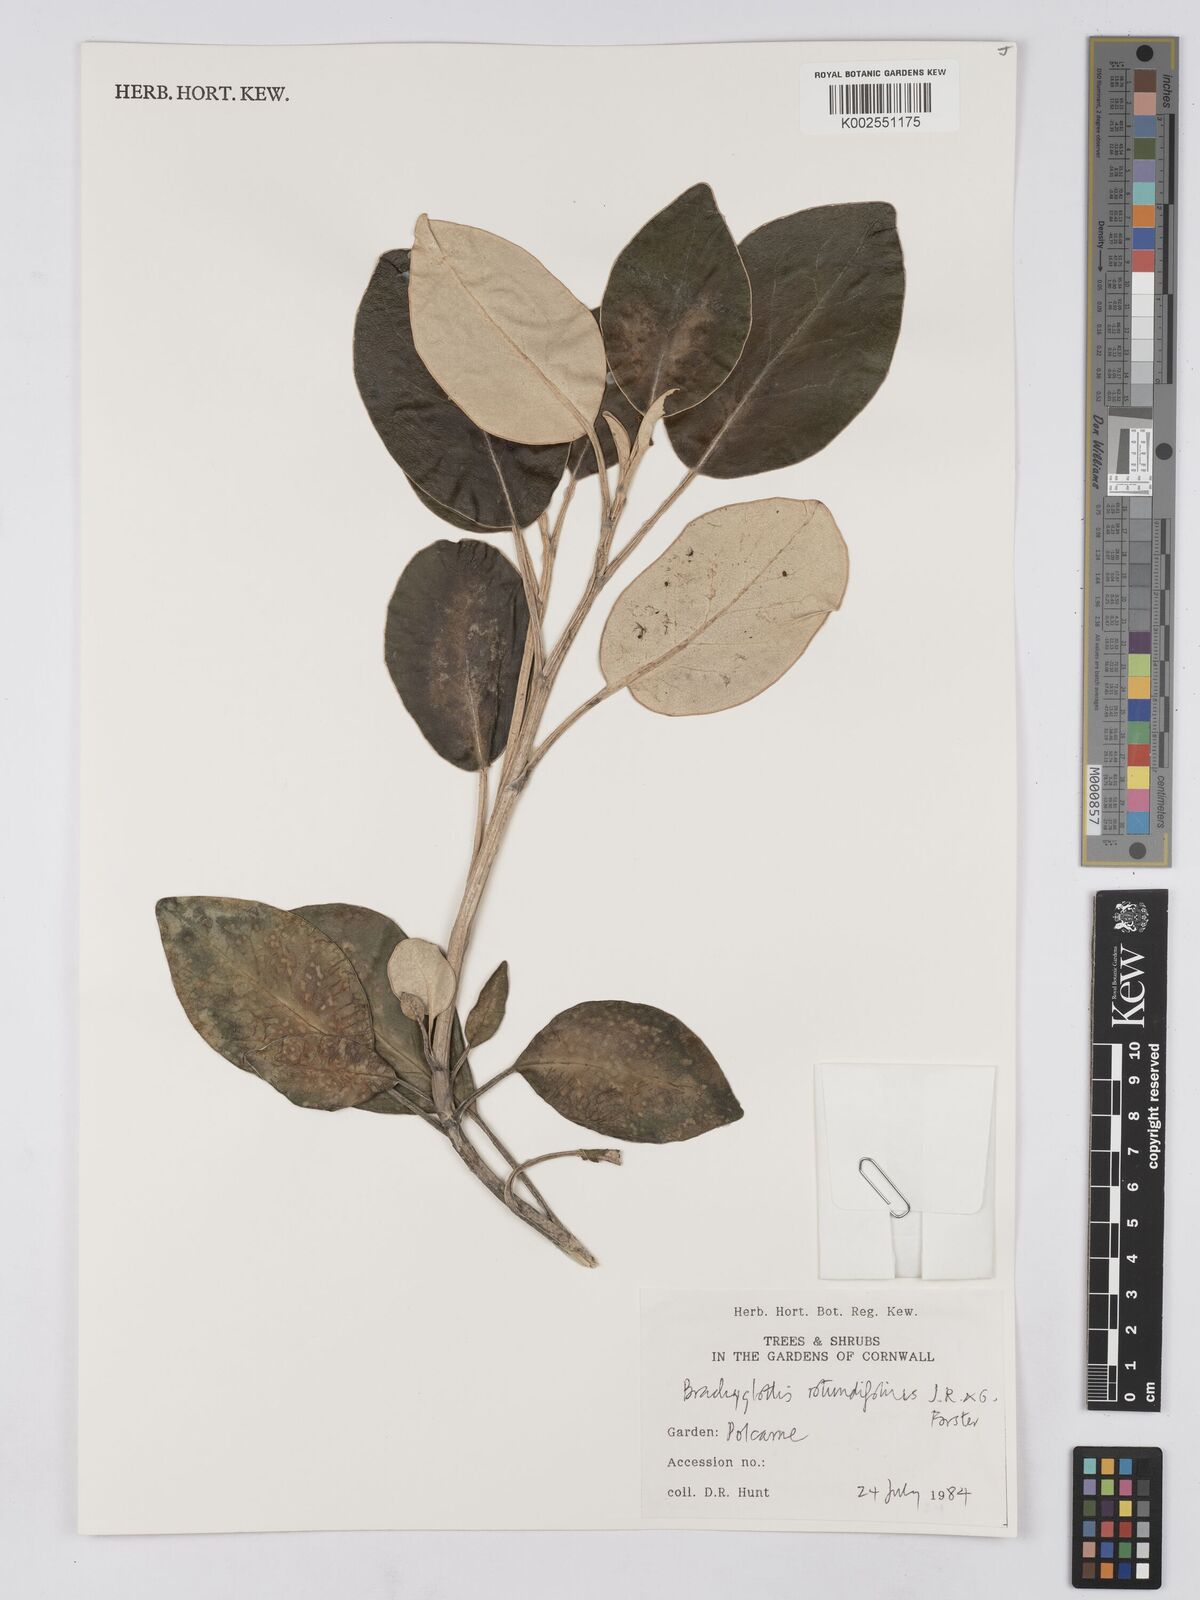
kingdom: Plantae
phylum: Tracheophyta
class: Magnoliopsida
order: Asterales
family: Asteraceae
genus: Brachyglottis
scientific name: Brachyglottis rotundifolia
